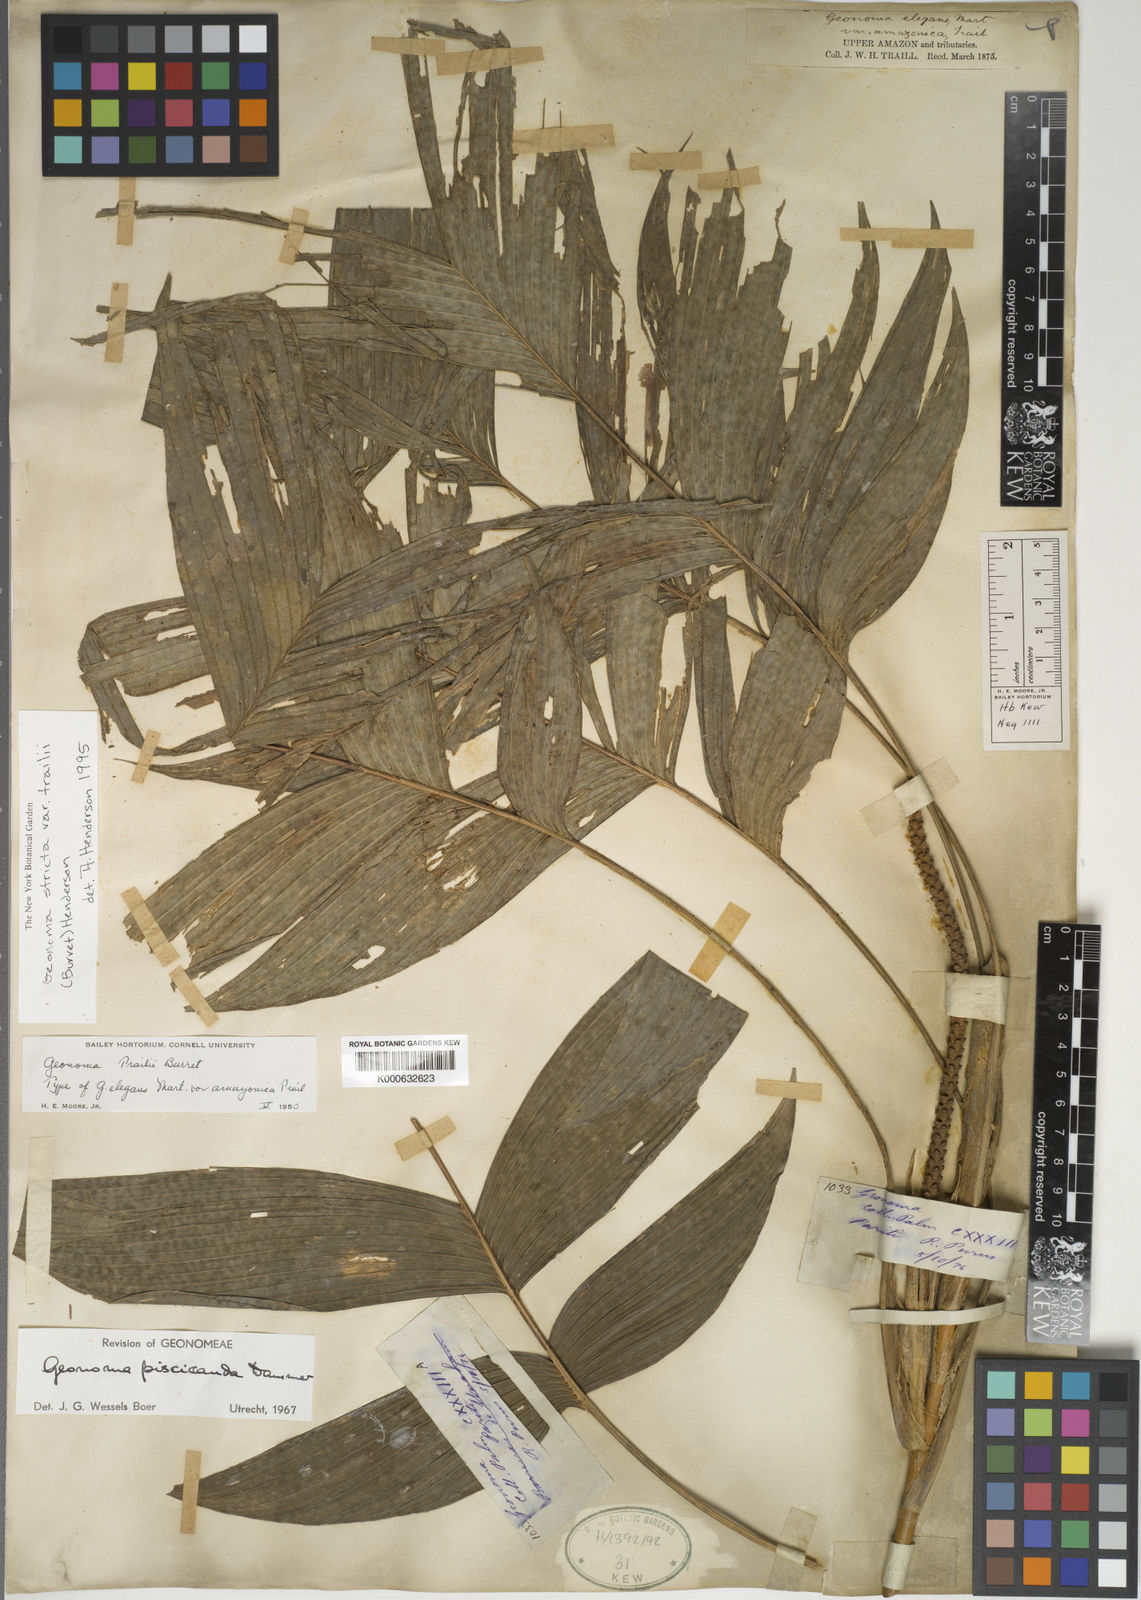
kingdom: Plantae
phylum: Tracheophyta
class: Liliopsida
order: Arecales
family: Arecaceae
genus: Geonoma
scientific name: Geonoma stricta
